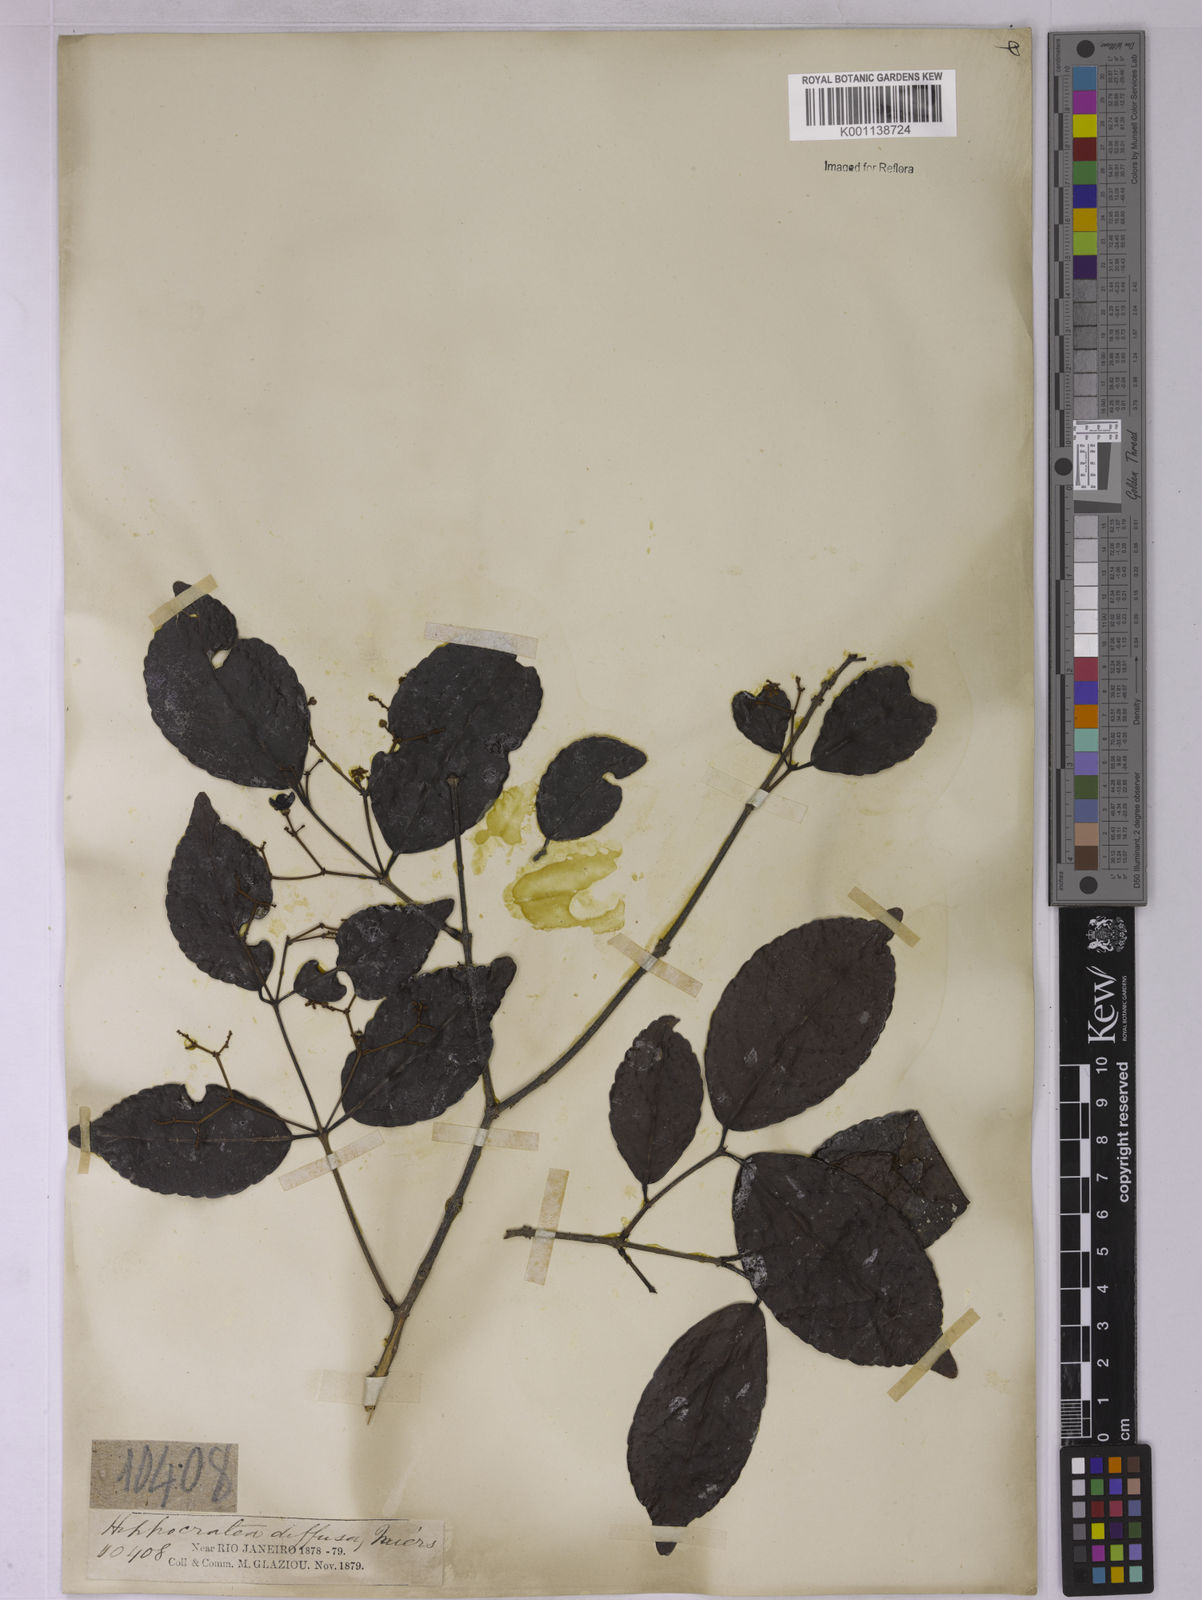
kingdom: Plantae
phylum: Tracheophyta
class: Magnoliopsida
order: Celastrales
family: Celastraceae
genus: Hippocratea
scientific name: Hippocratea volubilis
